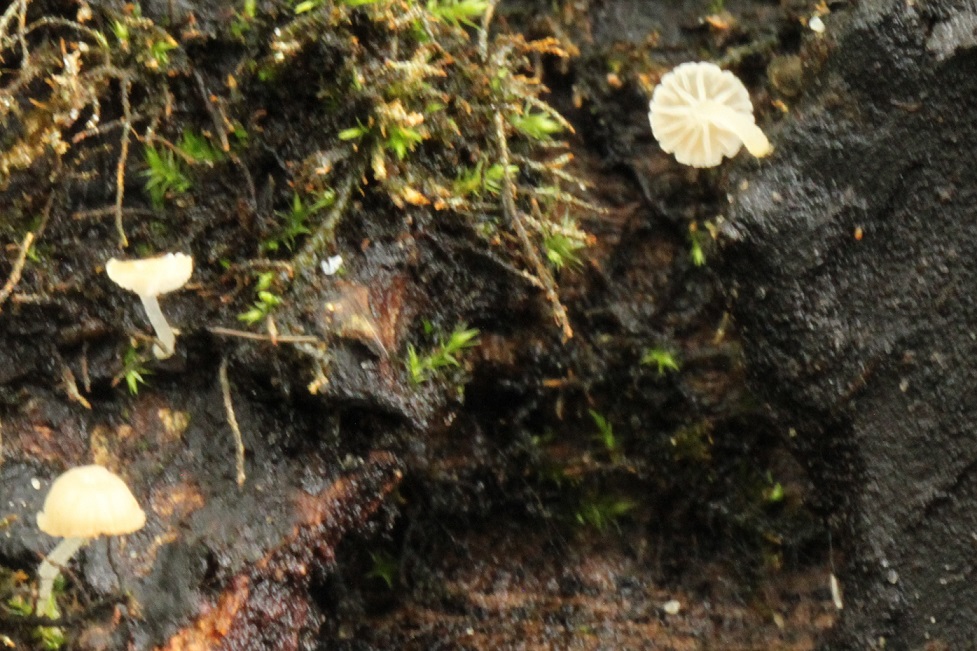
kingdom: Fungi
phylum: Basidiomycota
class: Agaricomycetes
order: Agaricales
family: Porotheleaceae
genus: Phloeomana
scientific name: Phloeomana hiemalis
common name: sen huesvamp
